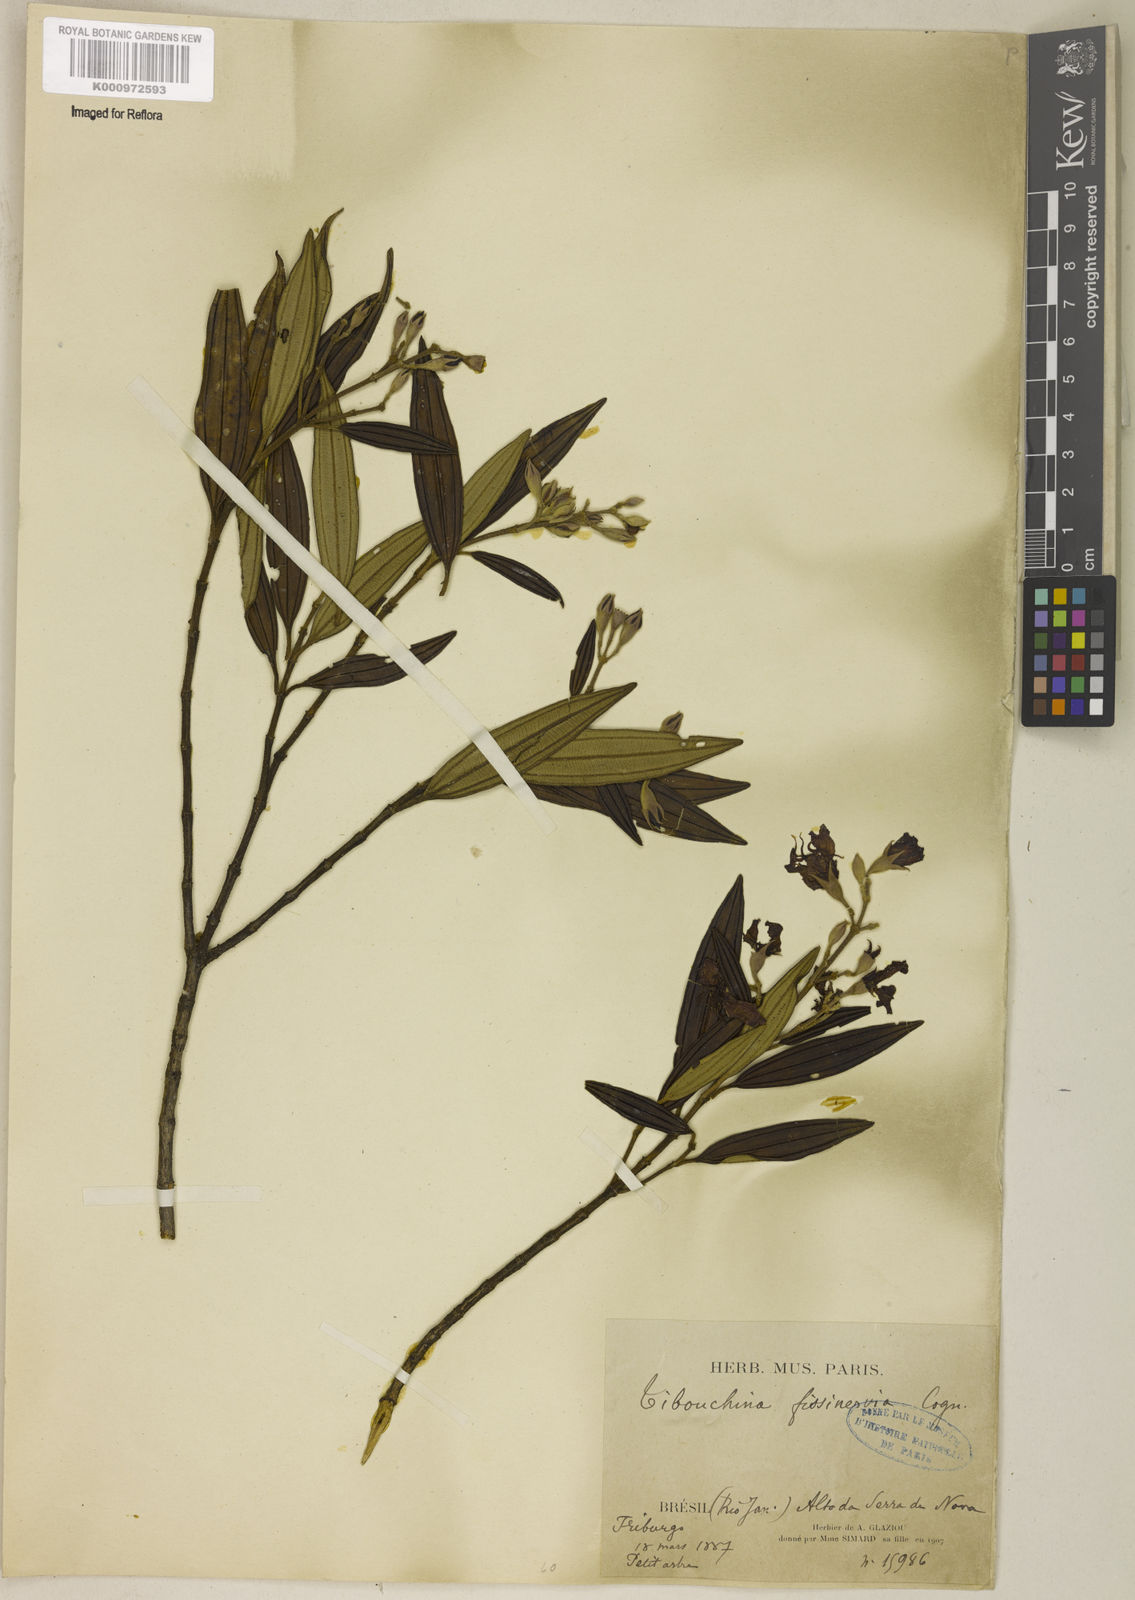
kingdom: Plantae
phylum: Tracheophyta
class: Magnoliopsida
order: Myrtales
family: Melastomataceae
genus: Pleroma
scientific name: Pleroma fissinervium
